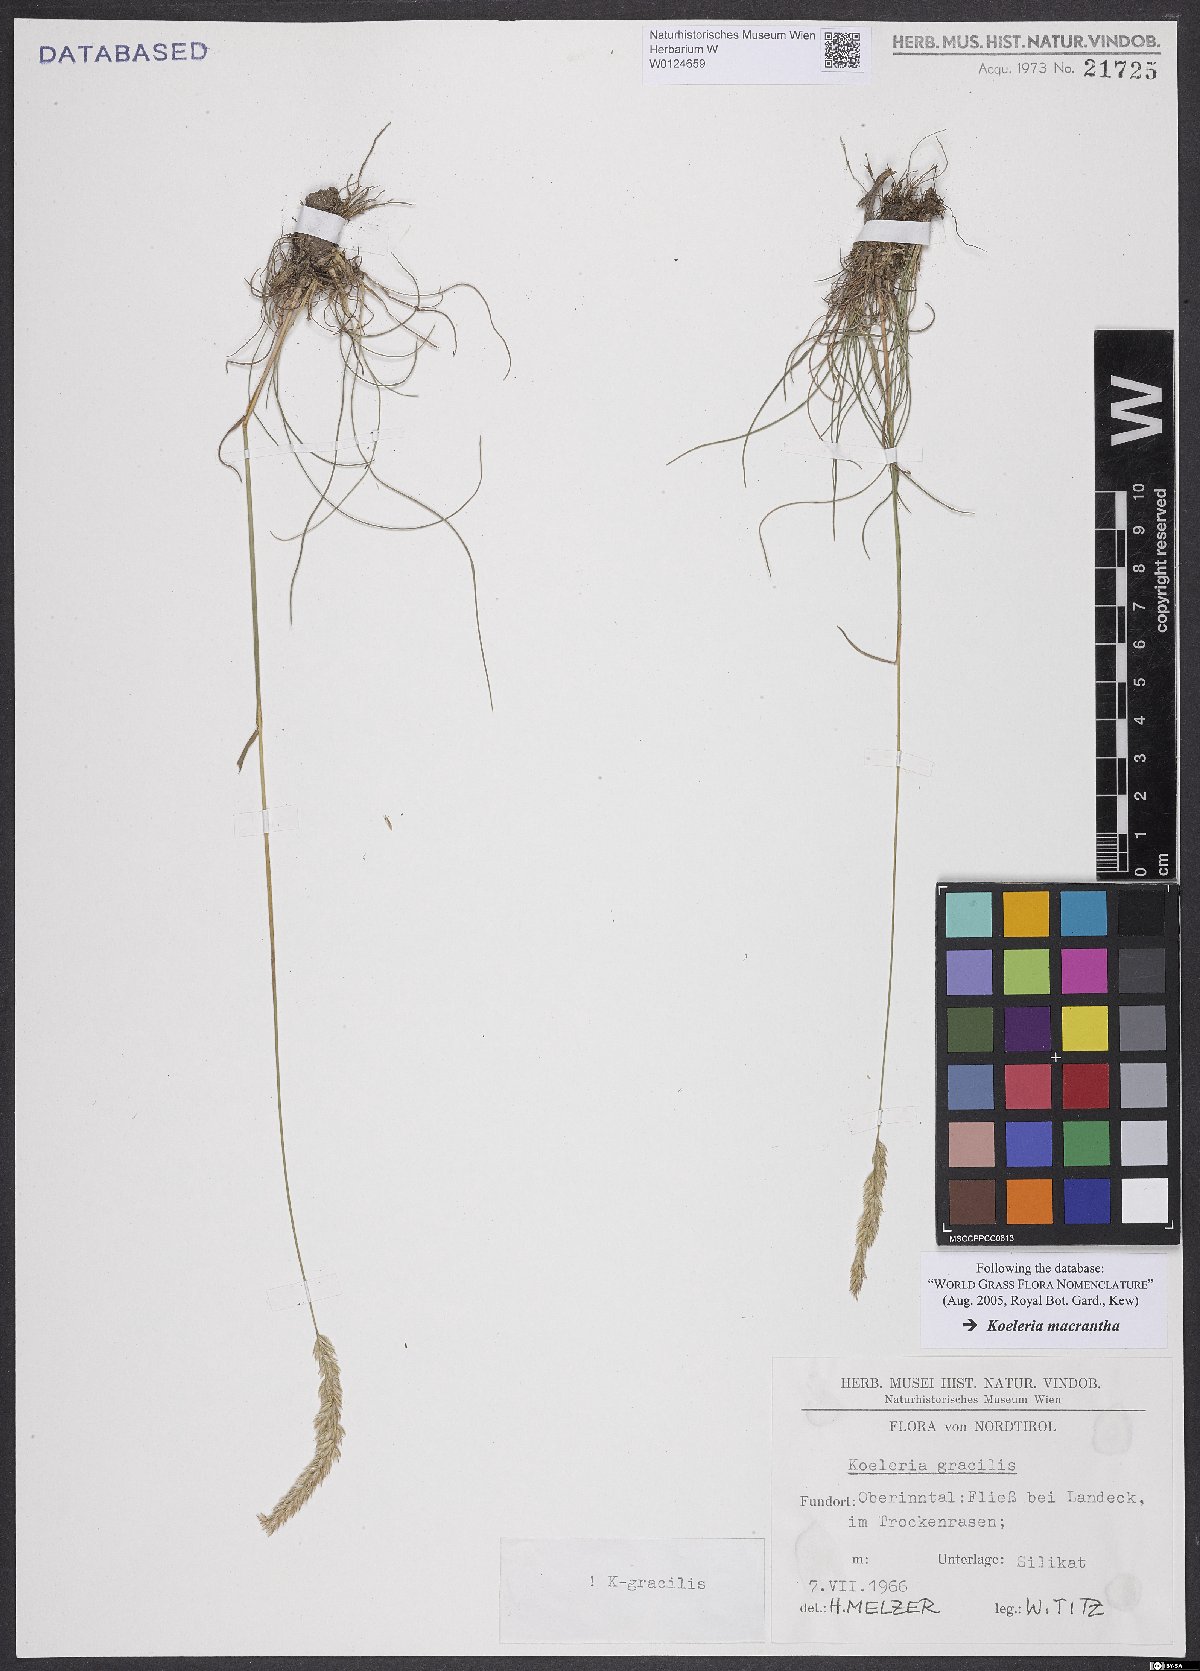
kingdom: Plantae
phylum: Tracheophyta
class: Liliopsida
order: Poales
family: Poaceae
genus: Koeleria
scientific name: Koeleria macrantha
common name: Crested hair-grass
